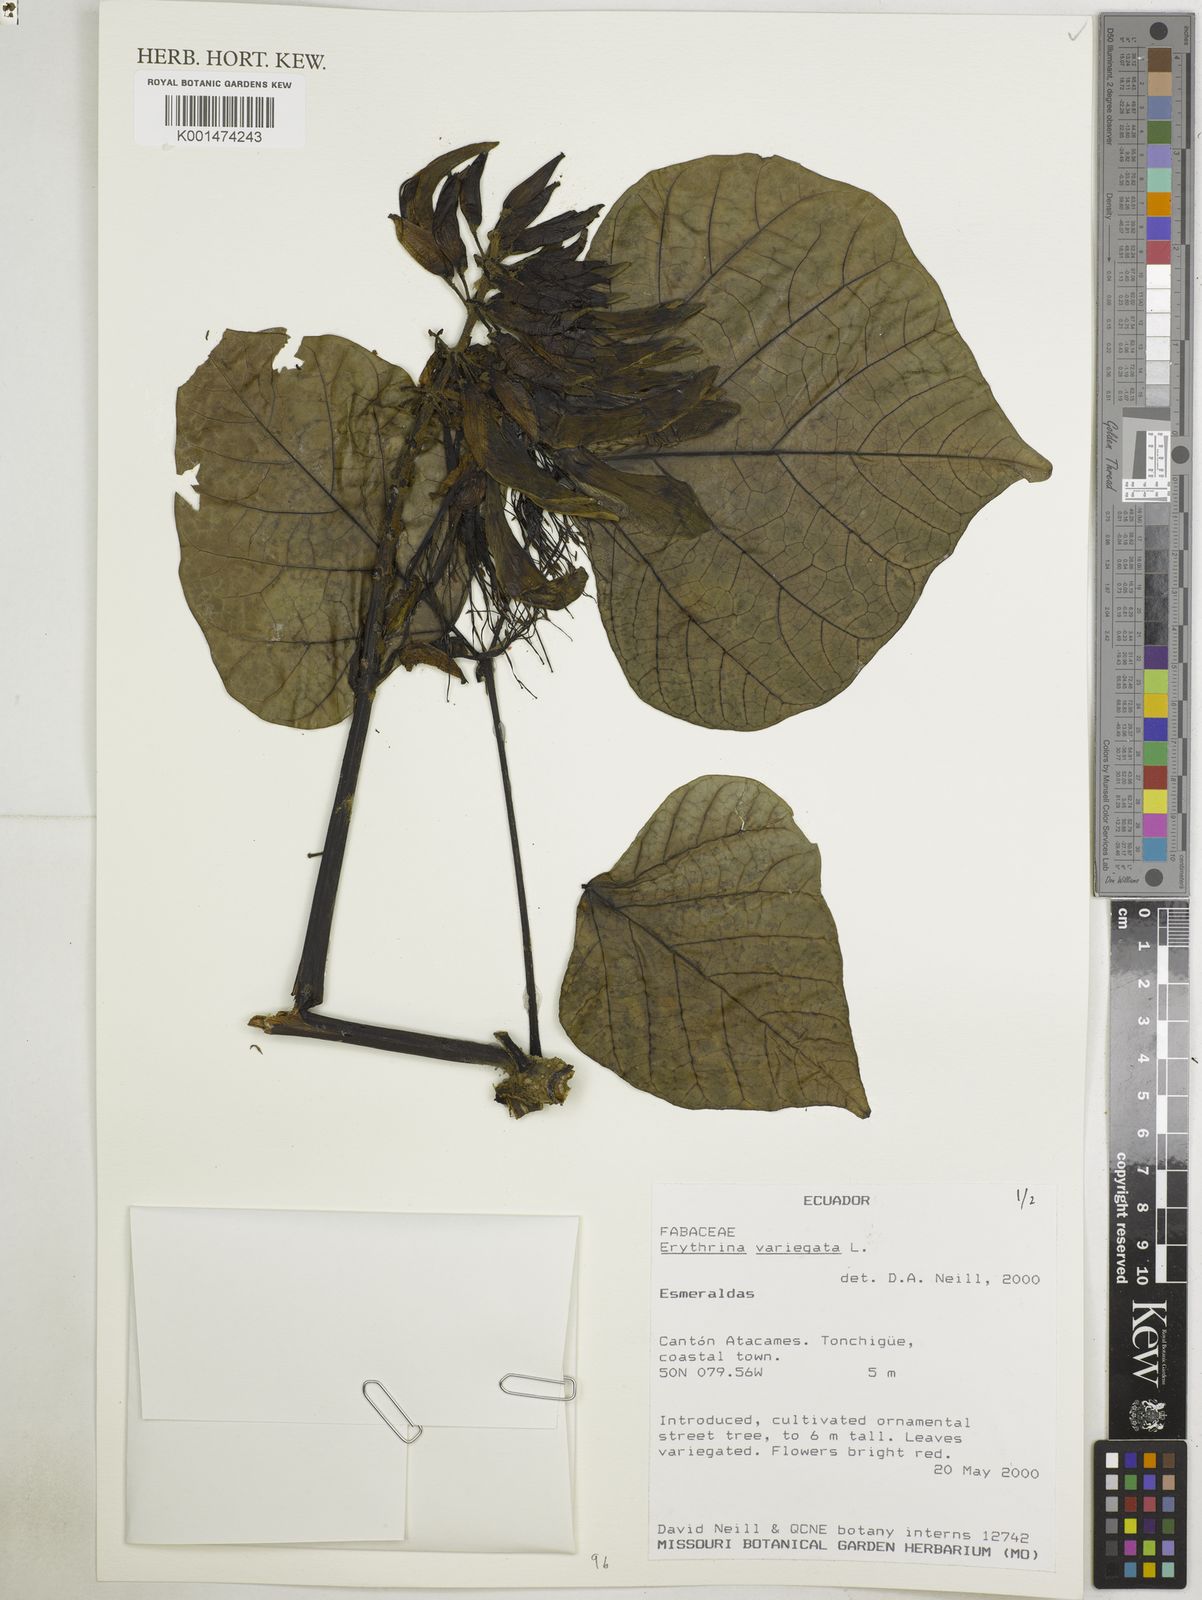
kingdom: Plantae
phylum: Tracheophyta
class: Magnoliopsida
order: Fabales
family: Fabaceae
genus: Erythrina
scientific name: Erythrina variegata
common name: Indian coral tree
